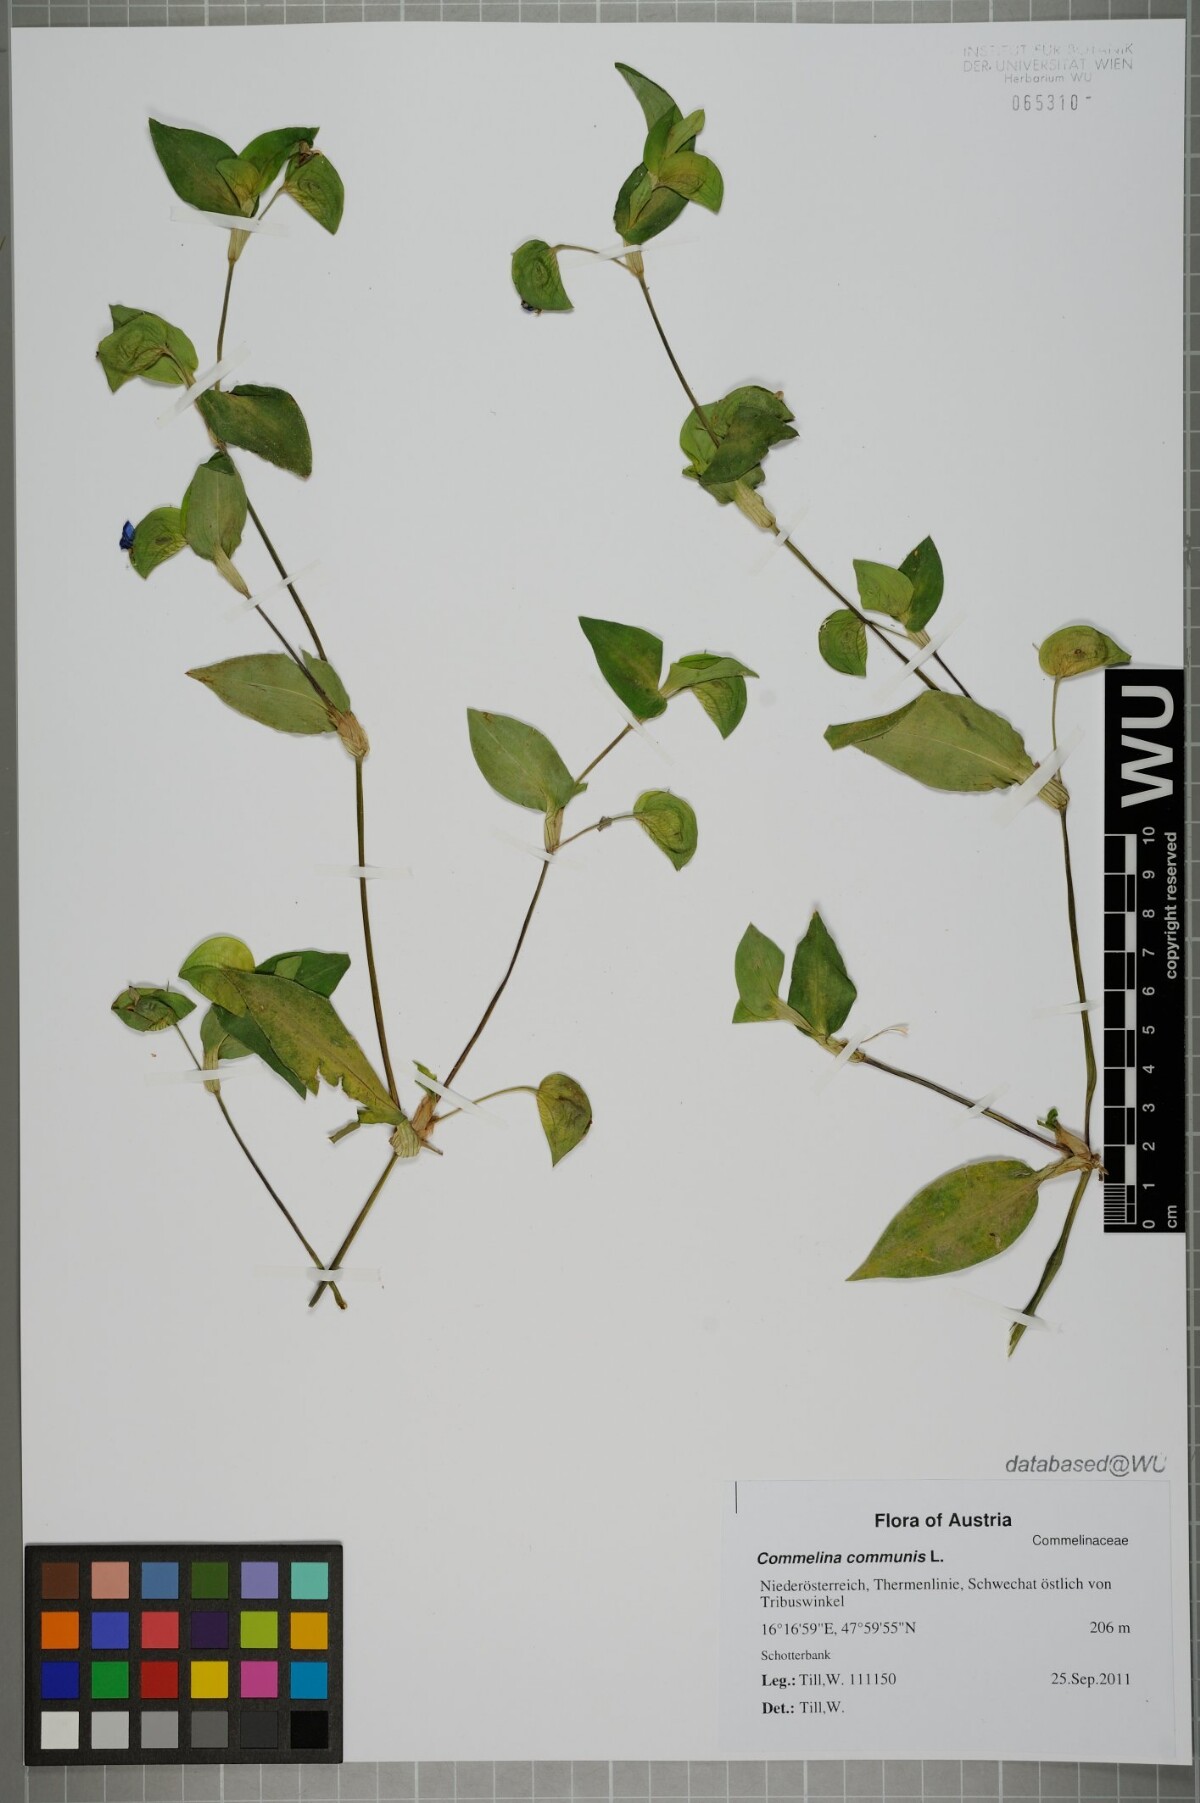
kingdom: Plantae
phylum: Tracheophyta
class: Liliopsida
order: Commelinales
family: Commelinaceae
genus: Commelina
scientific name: Commelina communis
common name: Asiatic dayflower
